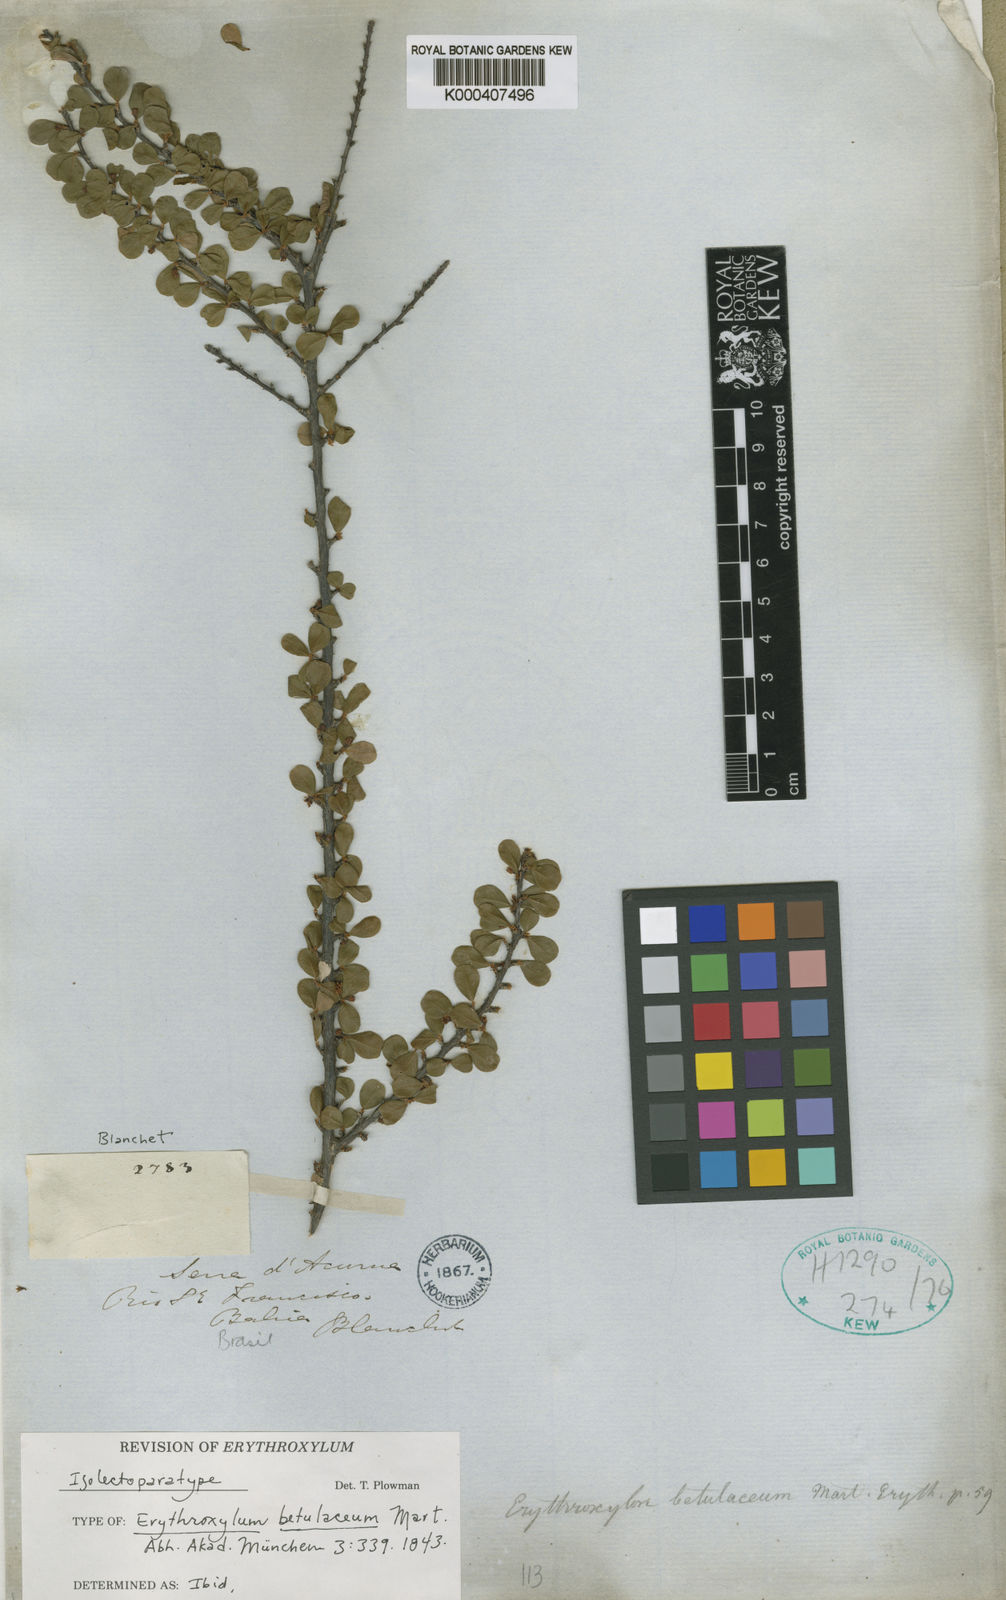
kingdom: Plantae
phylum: Tracheophyta
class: Magnoliopsida
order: Malpighiales
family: Erythroxylaceae
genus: Erythroxylum
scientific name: Erythroxylum betulaceum
